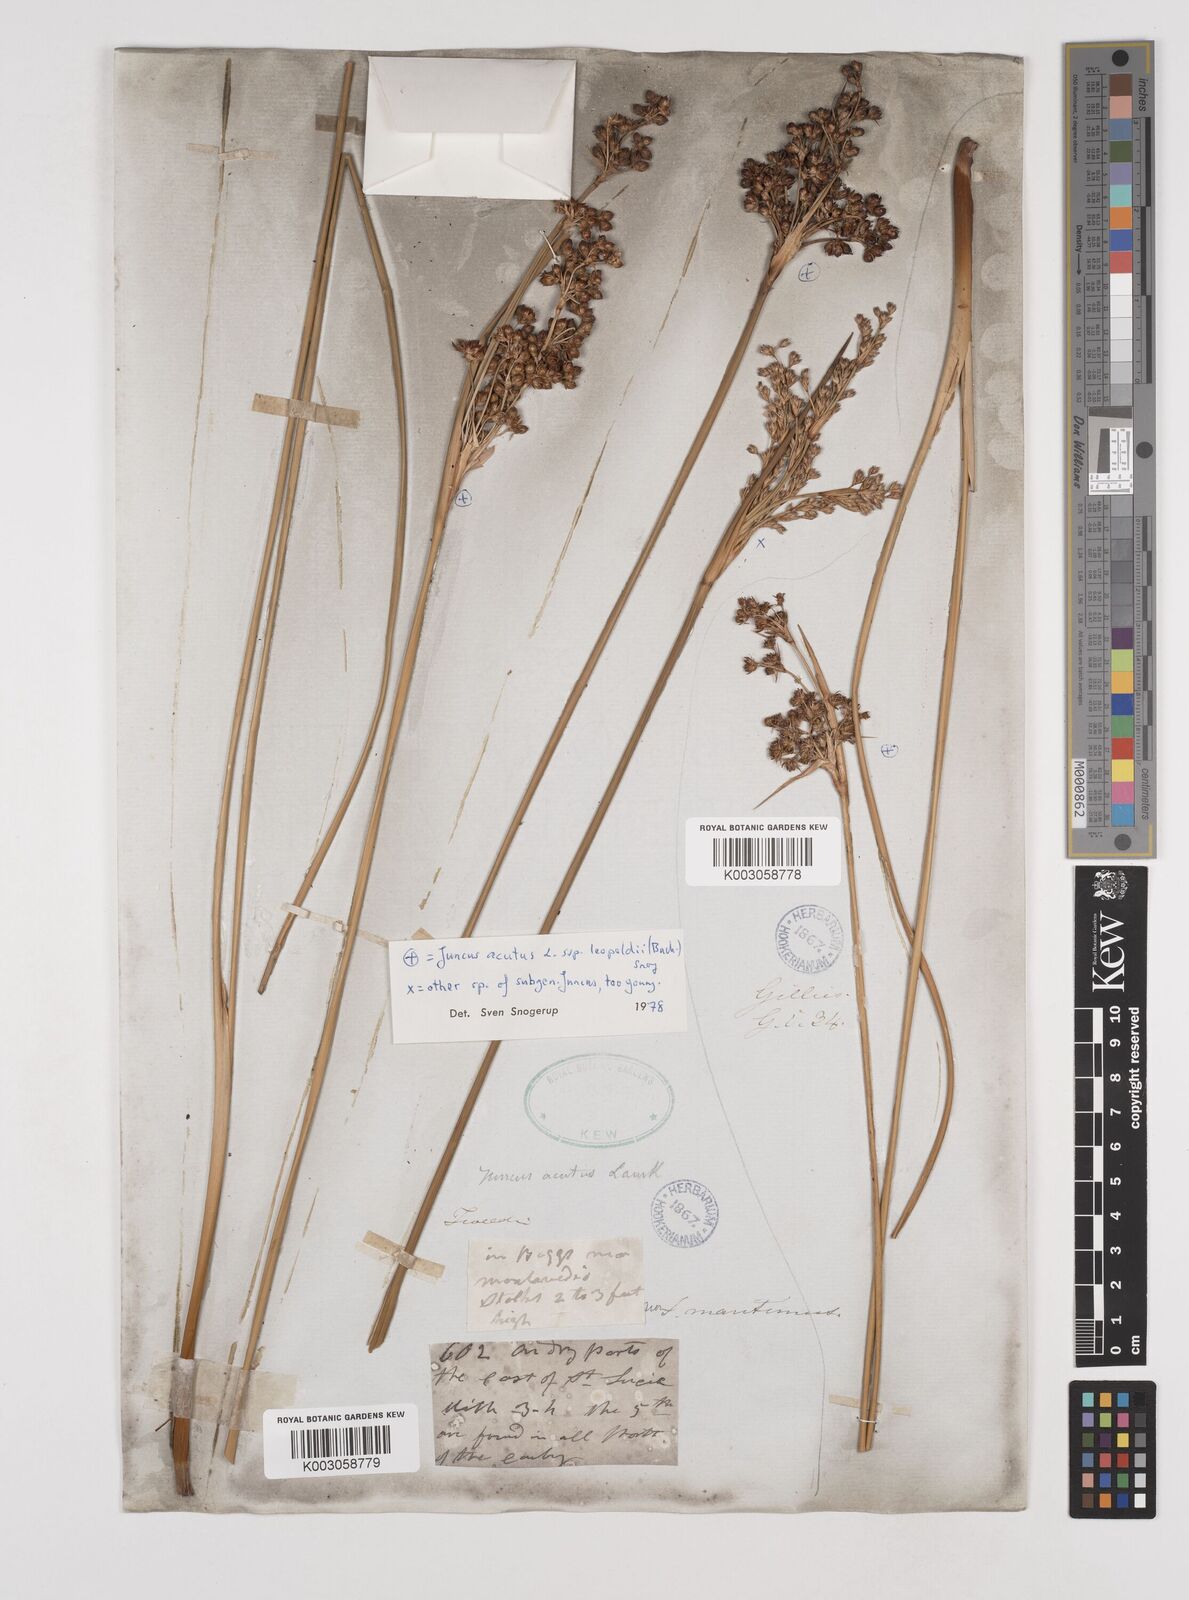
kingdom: Plantae
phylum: Tracheophyta
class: Liliopsida
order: Poales
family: Juncaceae
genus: Juncus
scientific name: Juncus acutus
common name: Sharp rush
